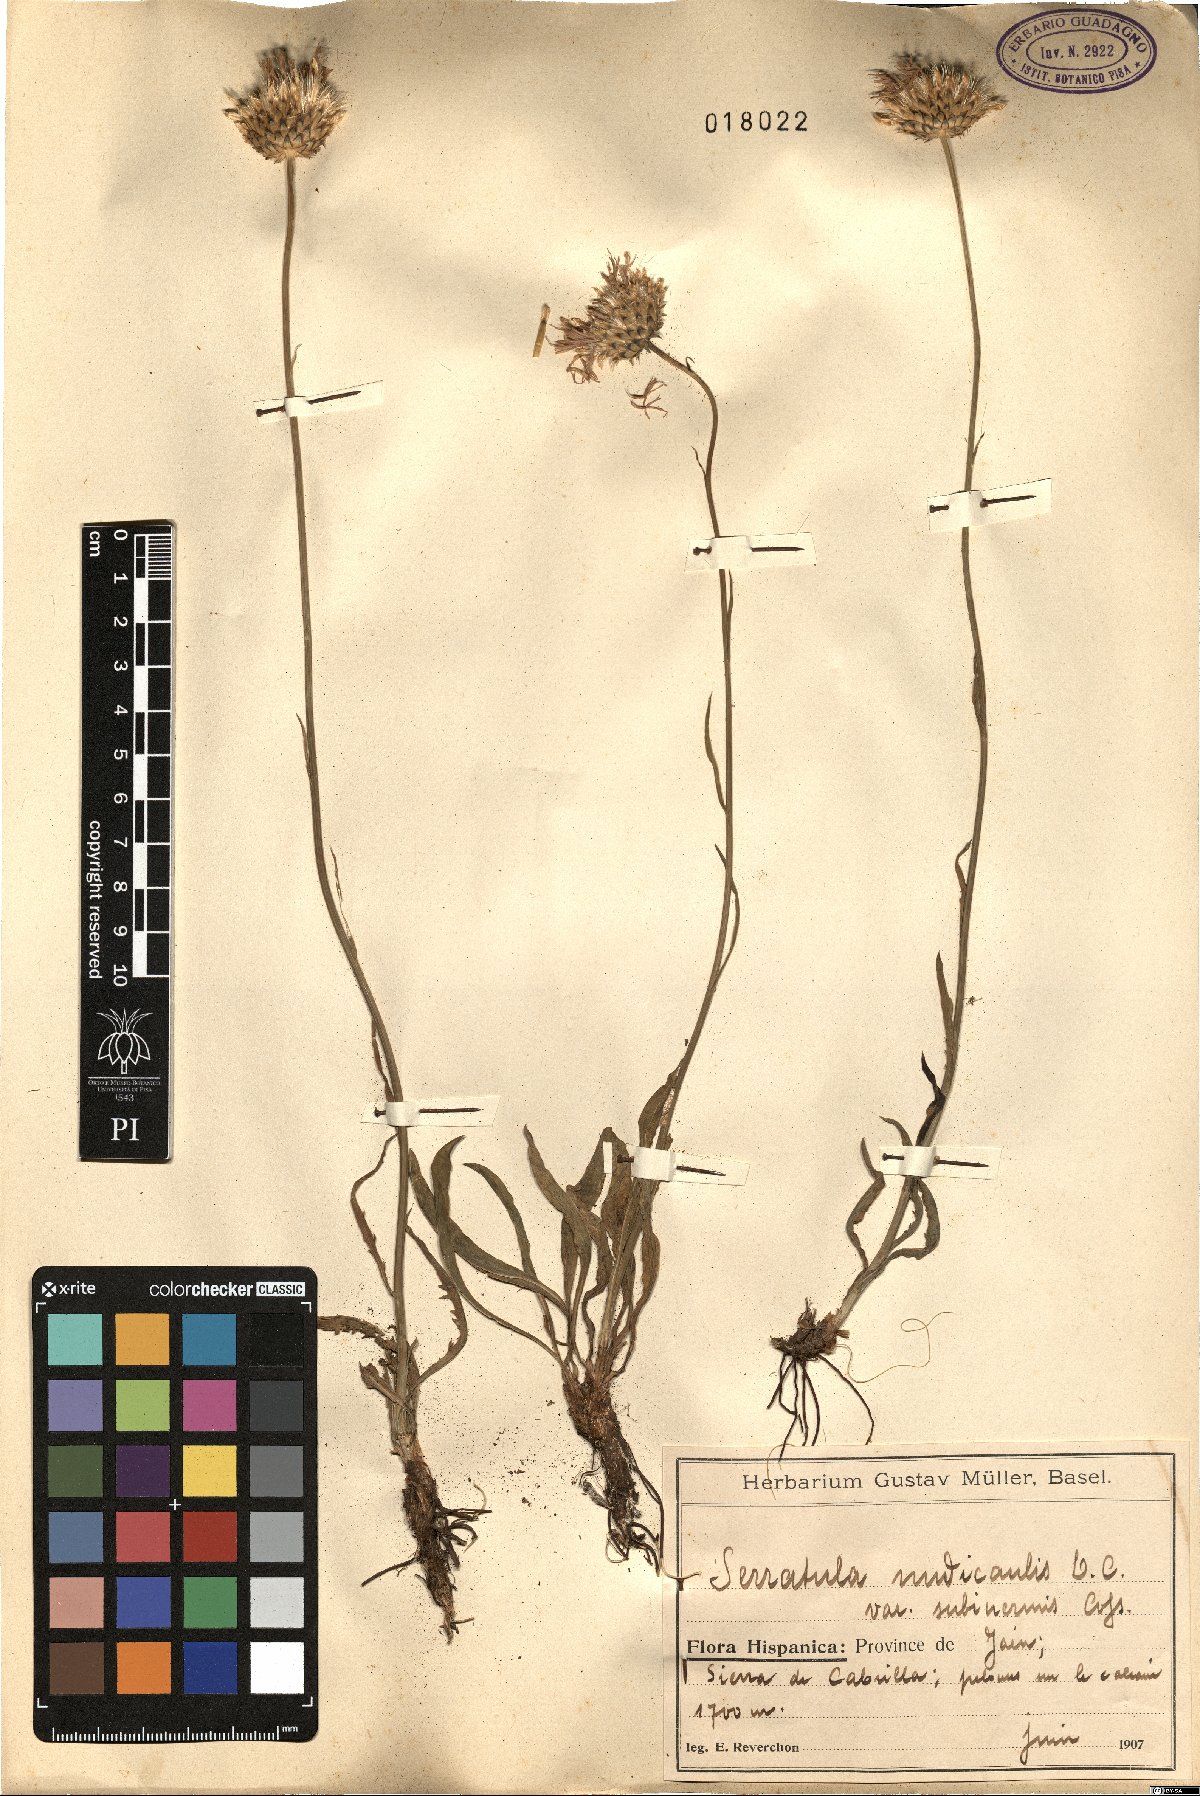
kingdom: Plantae
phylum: Tracheophyta
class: Magnoliopsida
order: Asterales
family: Asteraceae
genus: Klasea
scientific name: Klasea nudicaulis
